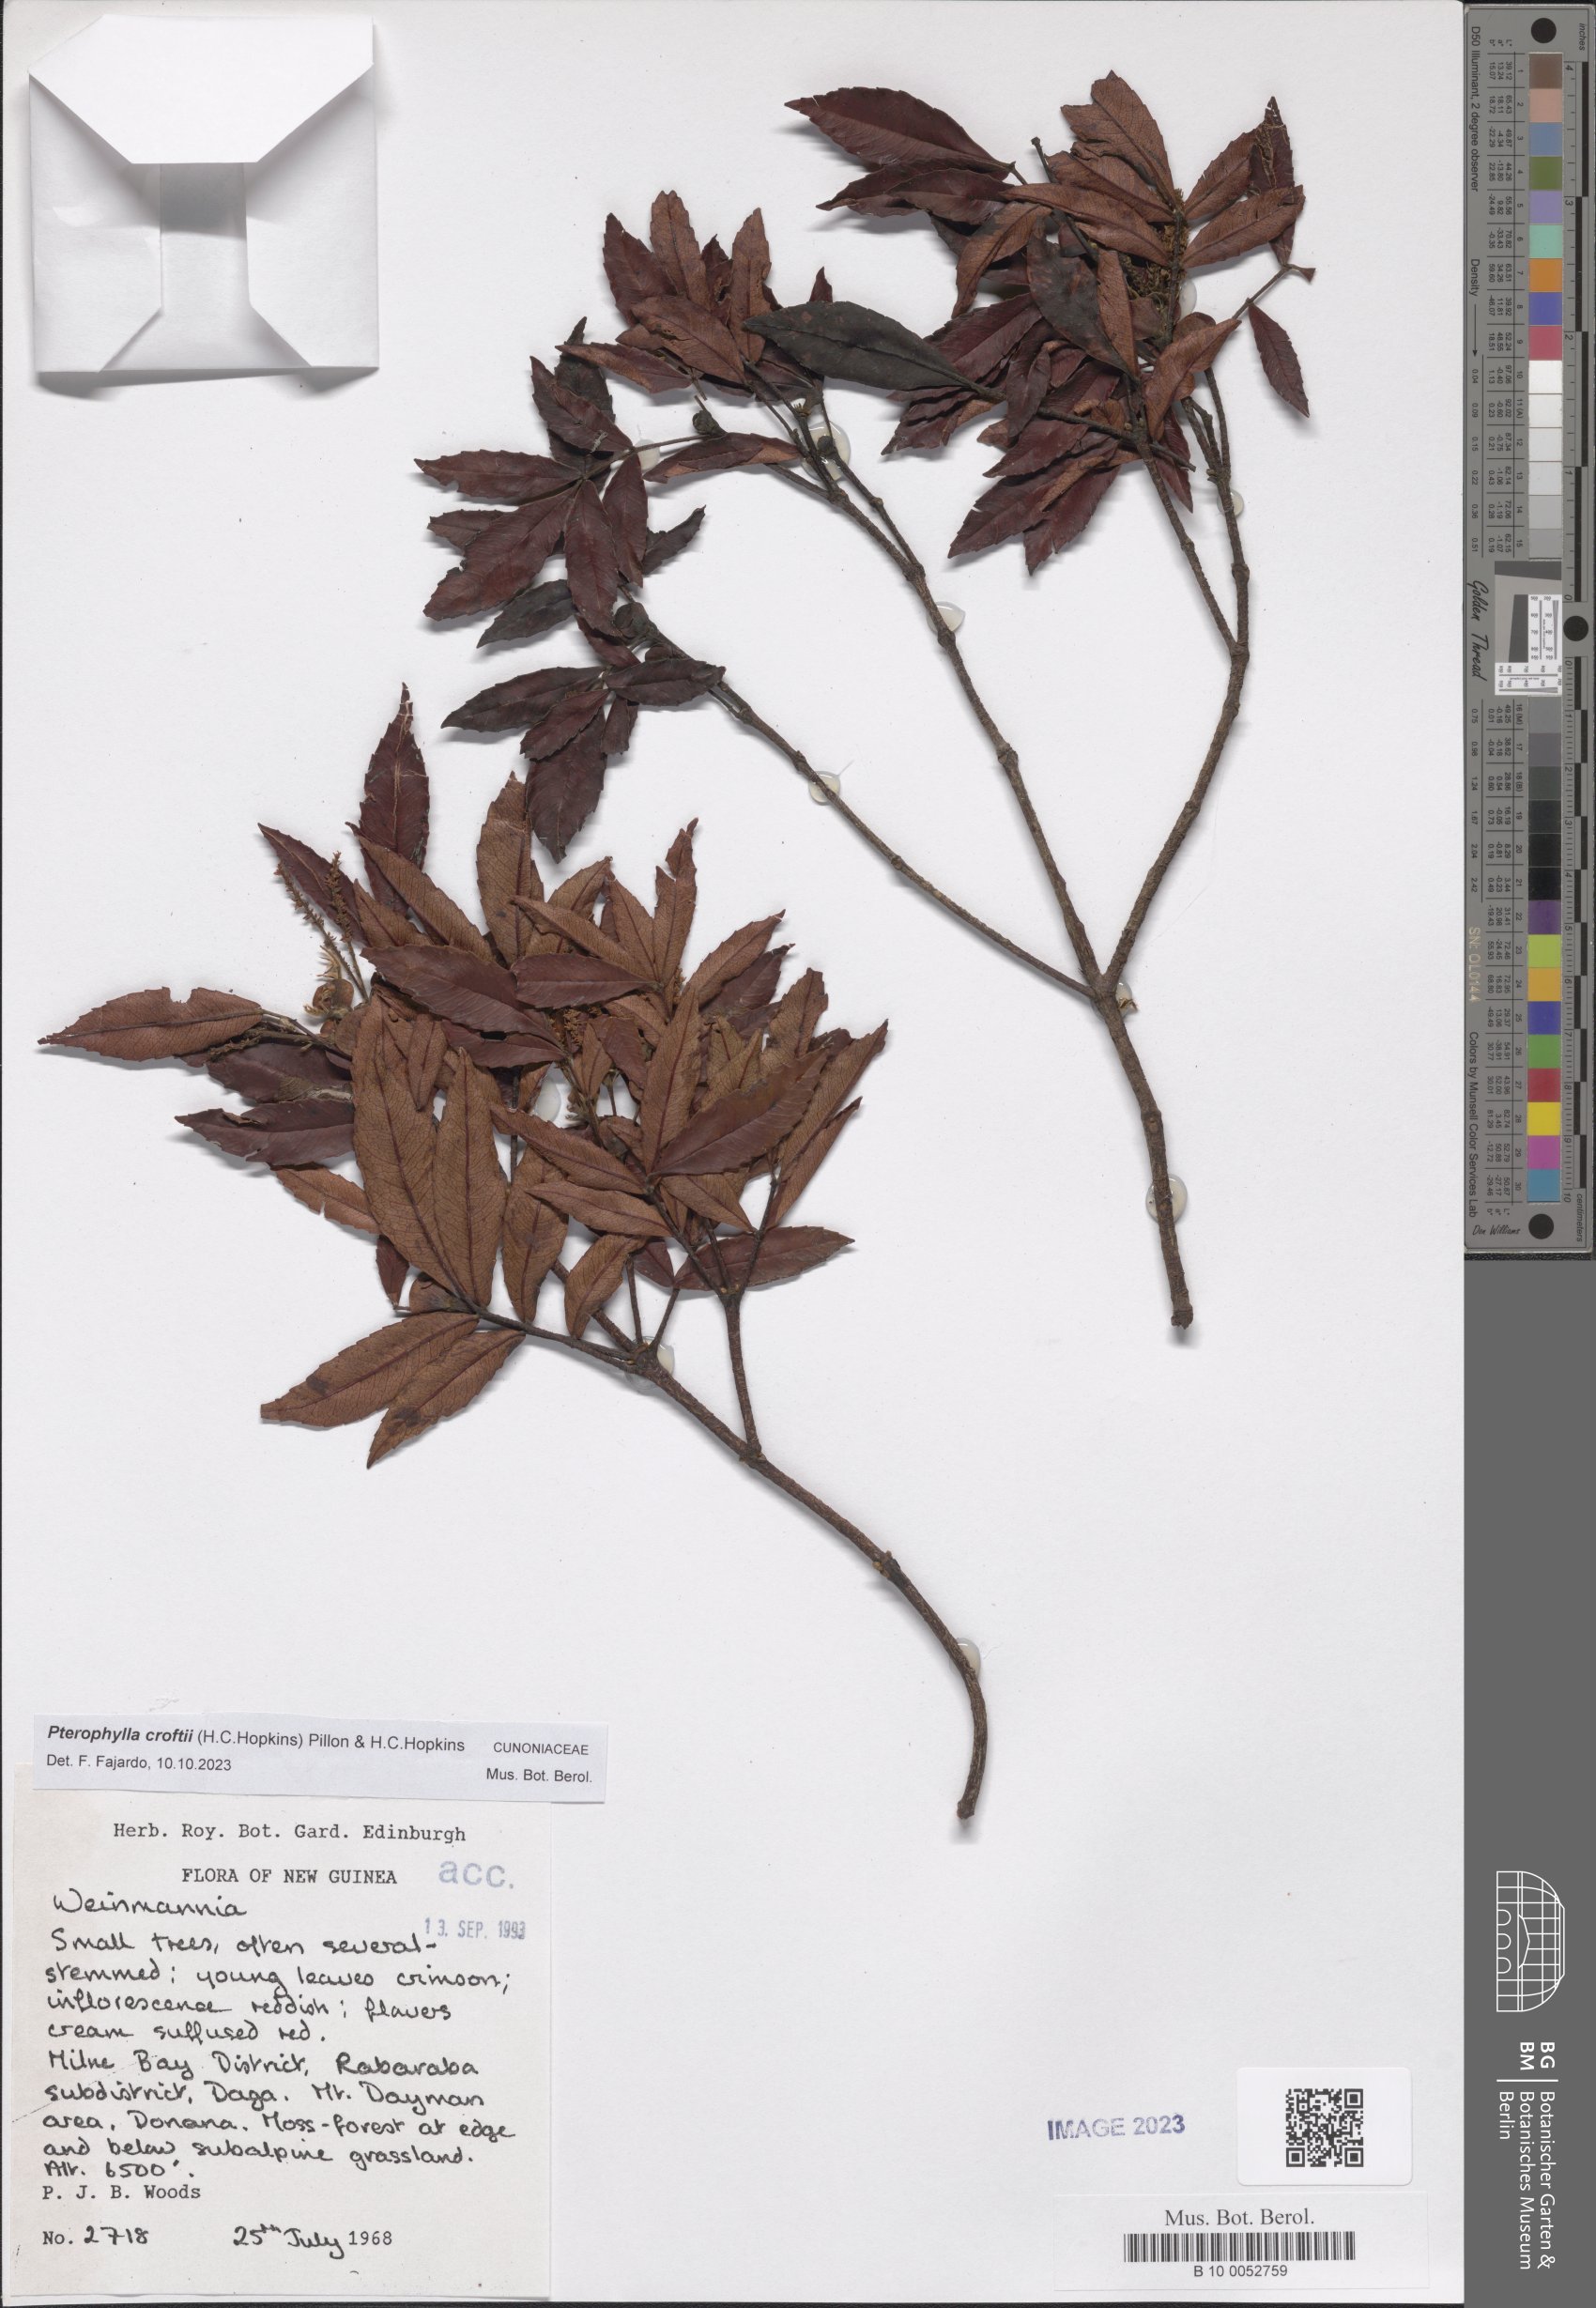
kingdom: Plantae
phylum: Tracheophyta
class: Magnoliopsida
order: Oxalidales
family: Cunoniaceae
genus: Pterophylla
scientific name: Pterophylla croftii
